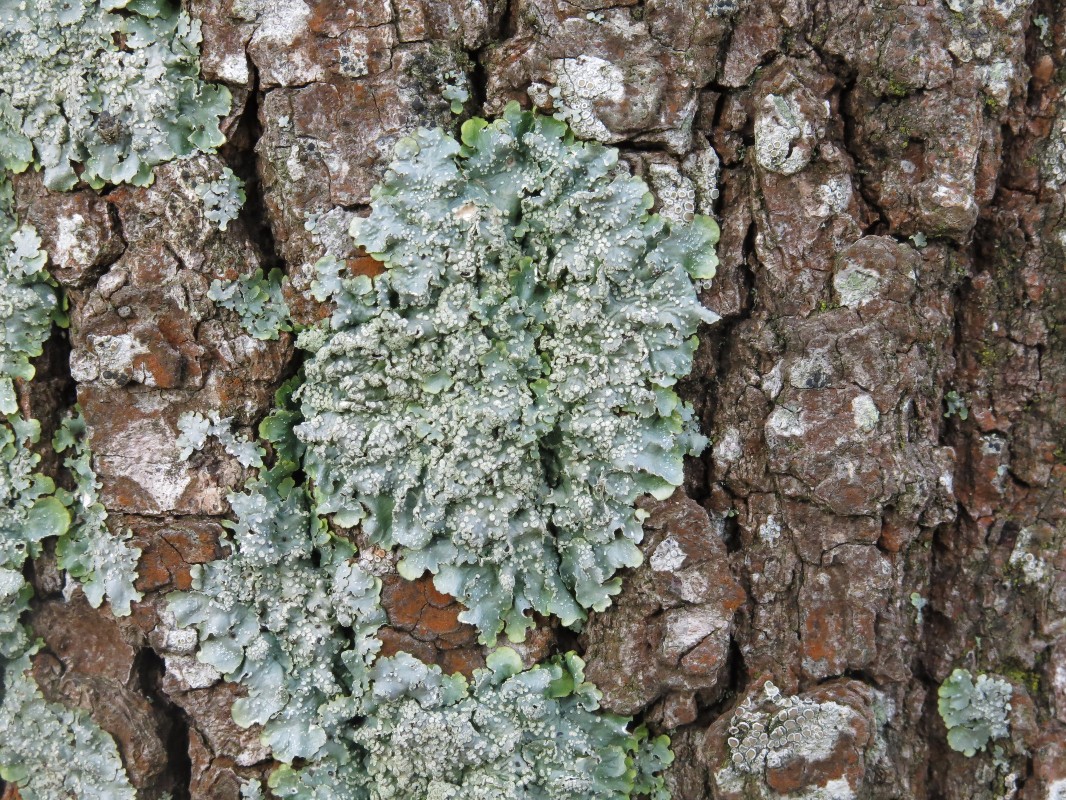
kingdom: Fungi
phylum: Ascomycota
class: Lecanoromycetes
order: Lecanorales
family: Parmeliaceae
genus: Punctelia
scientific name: Punctelia subrudecta
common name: punkt-skållav
